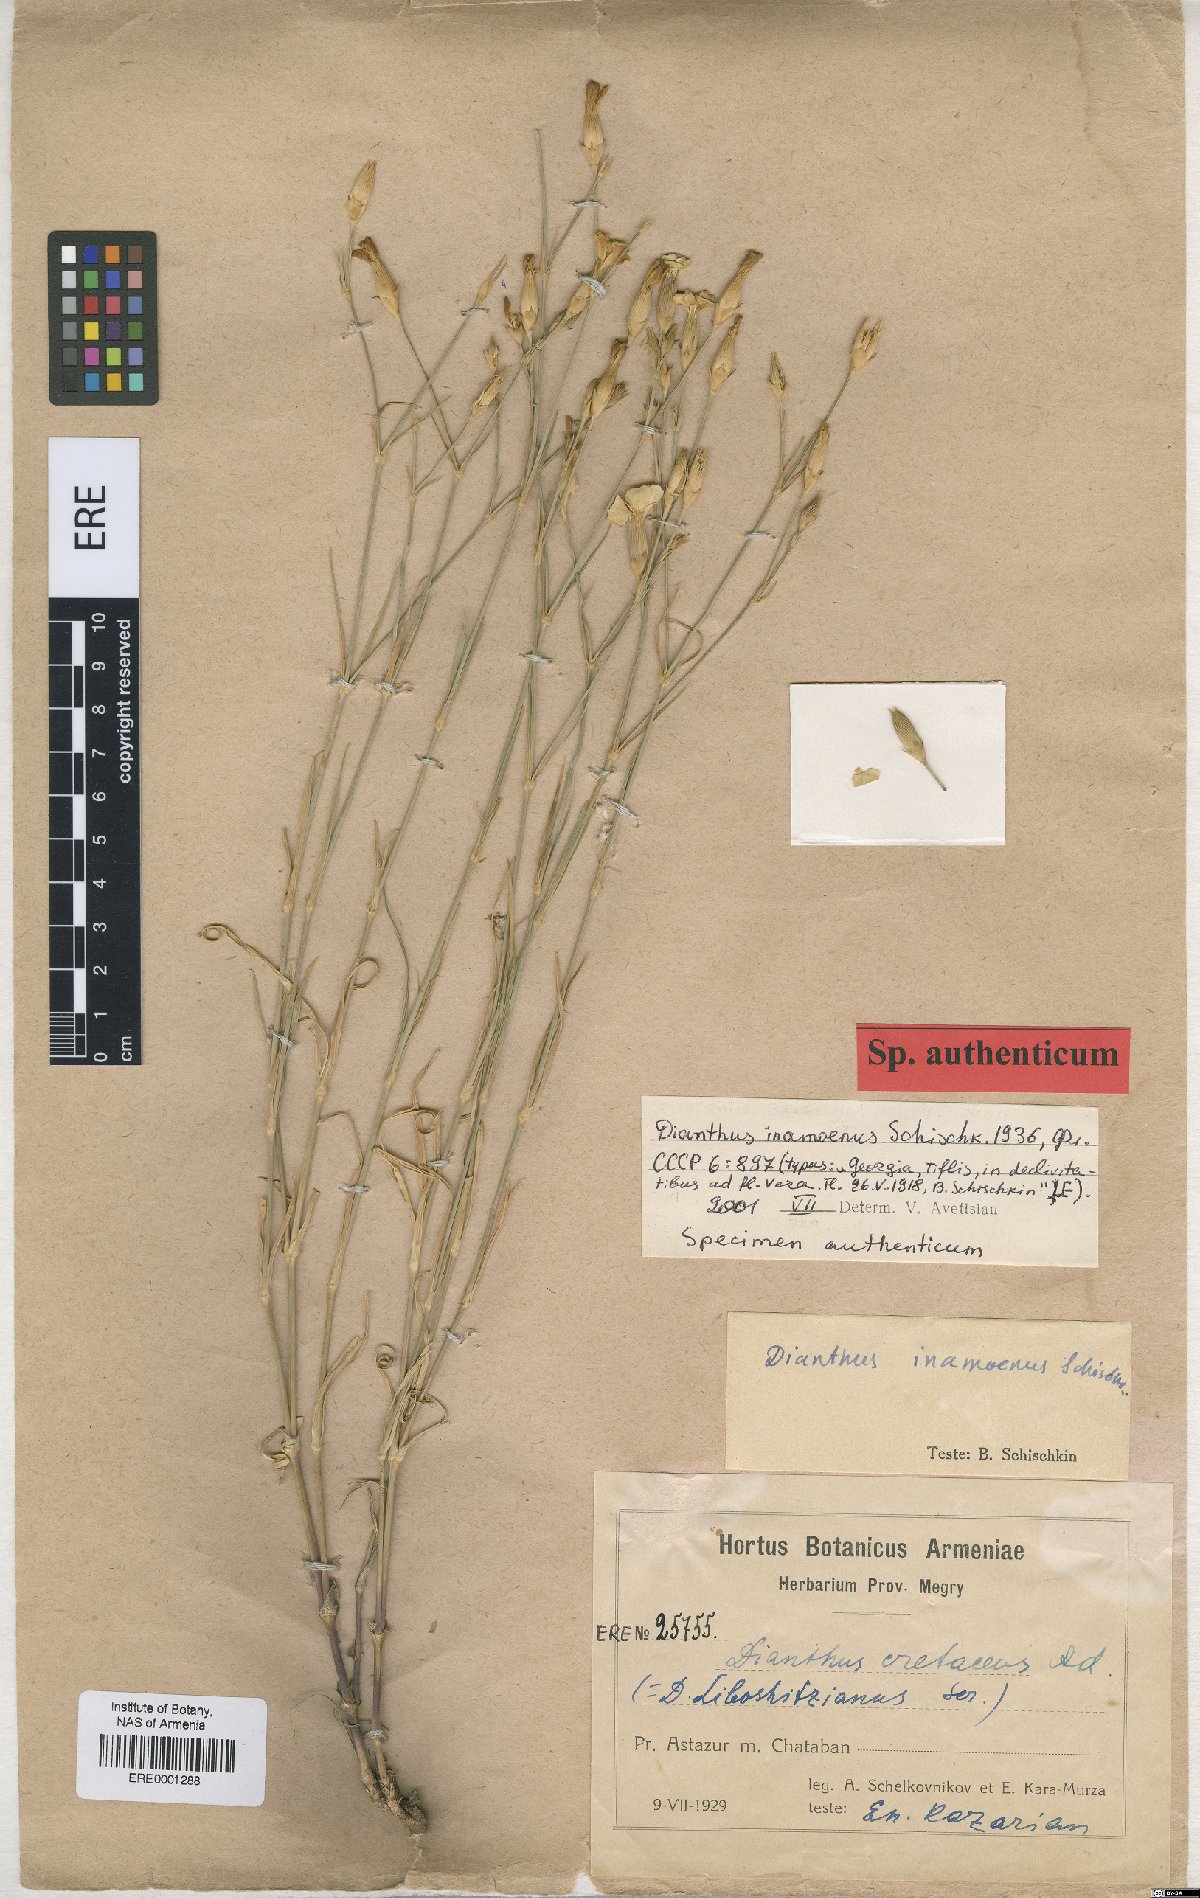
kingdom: Plantae
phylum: Tracheophyta
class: Magnoliopsida
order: Caryophyllales
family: Caryophyllaceae
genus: Dianthus
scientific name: Dianthus inamoenus
